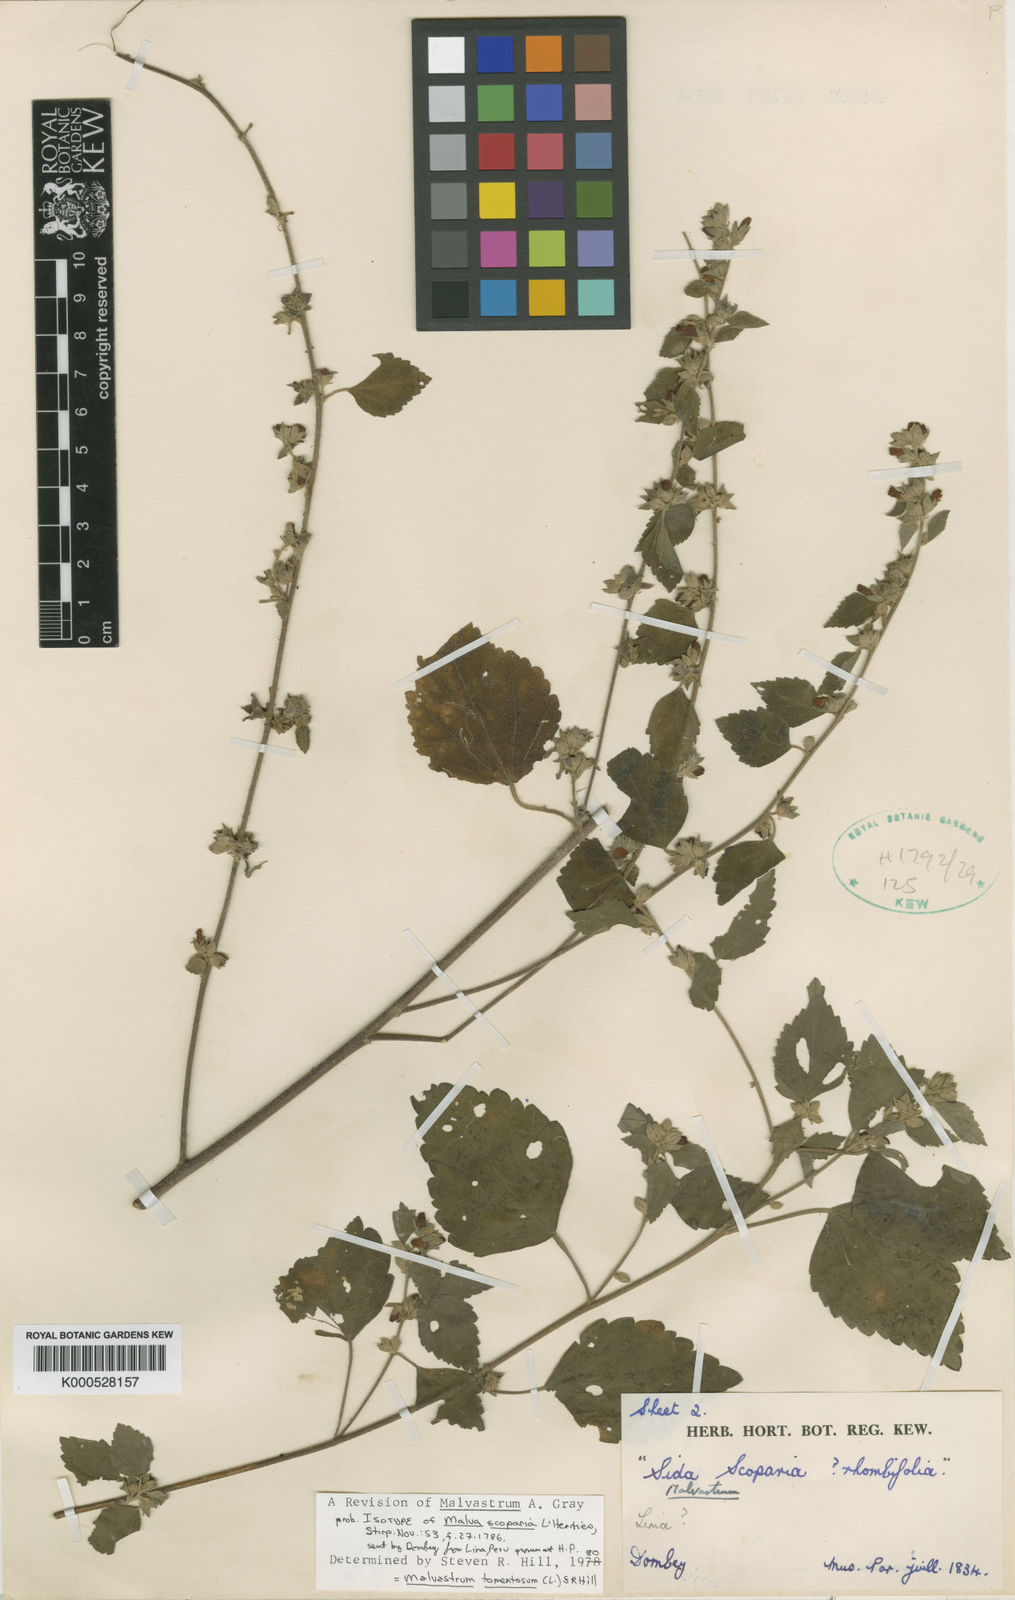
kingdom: Plantae
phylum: Tracheophyta
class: Magnoliopsida
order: Malvales
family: Malvaceae
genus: Malvastrum
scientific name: Malvastrum tomentosum
